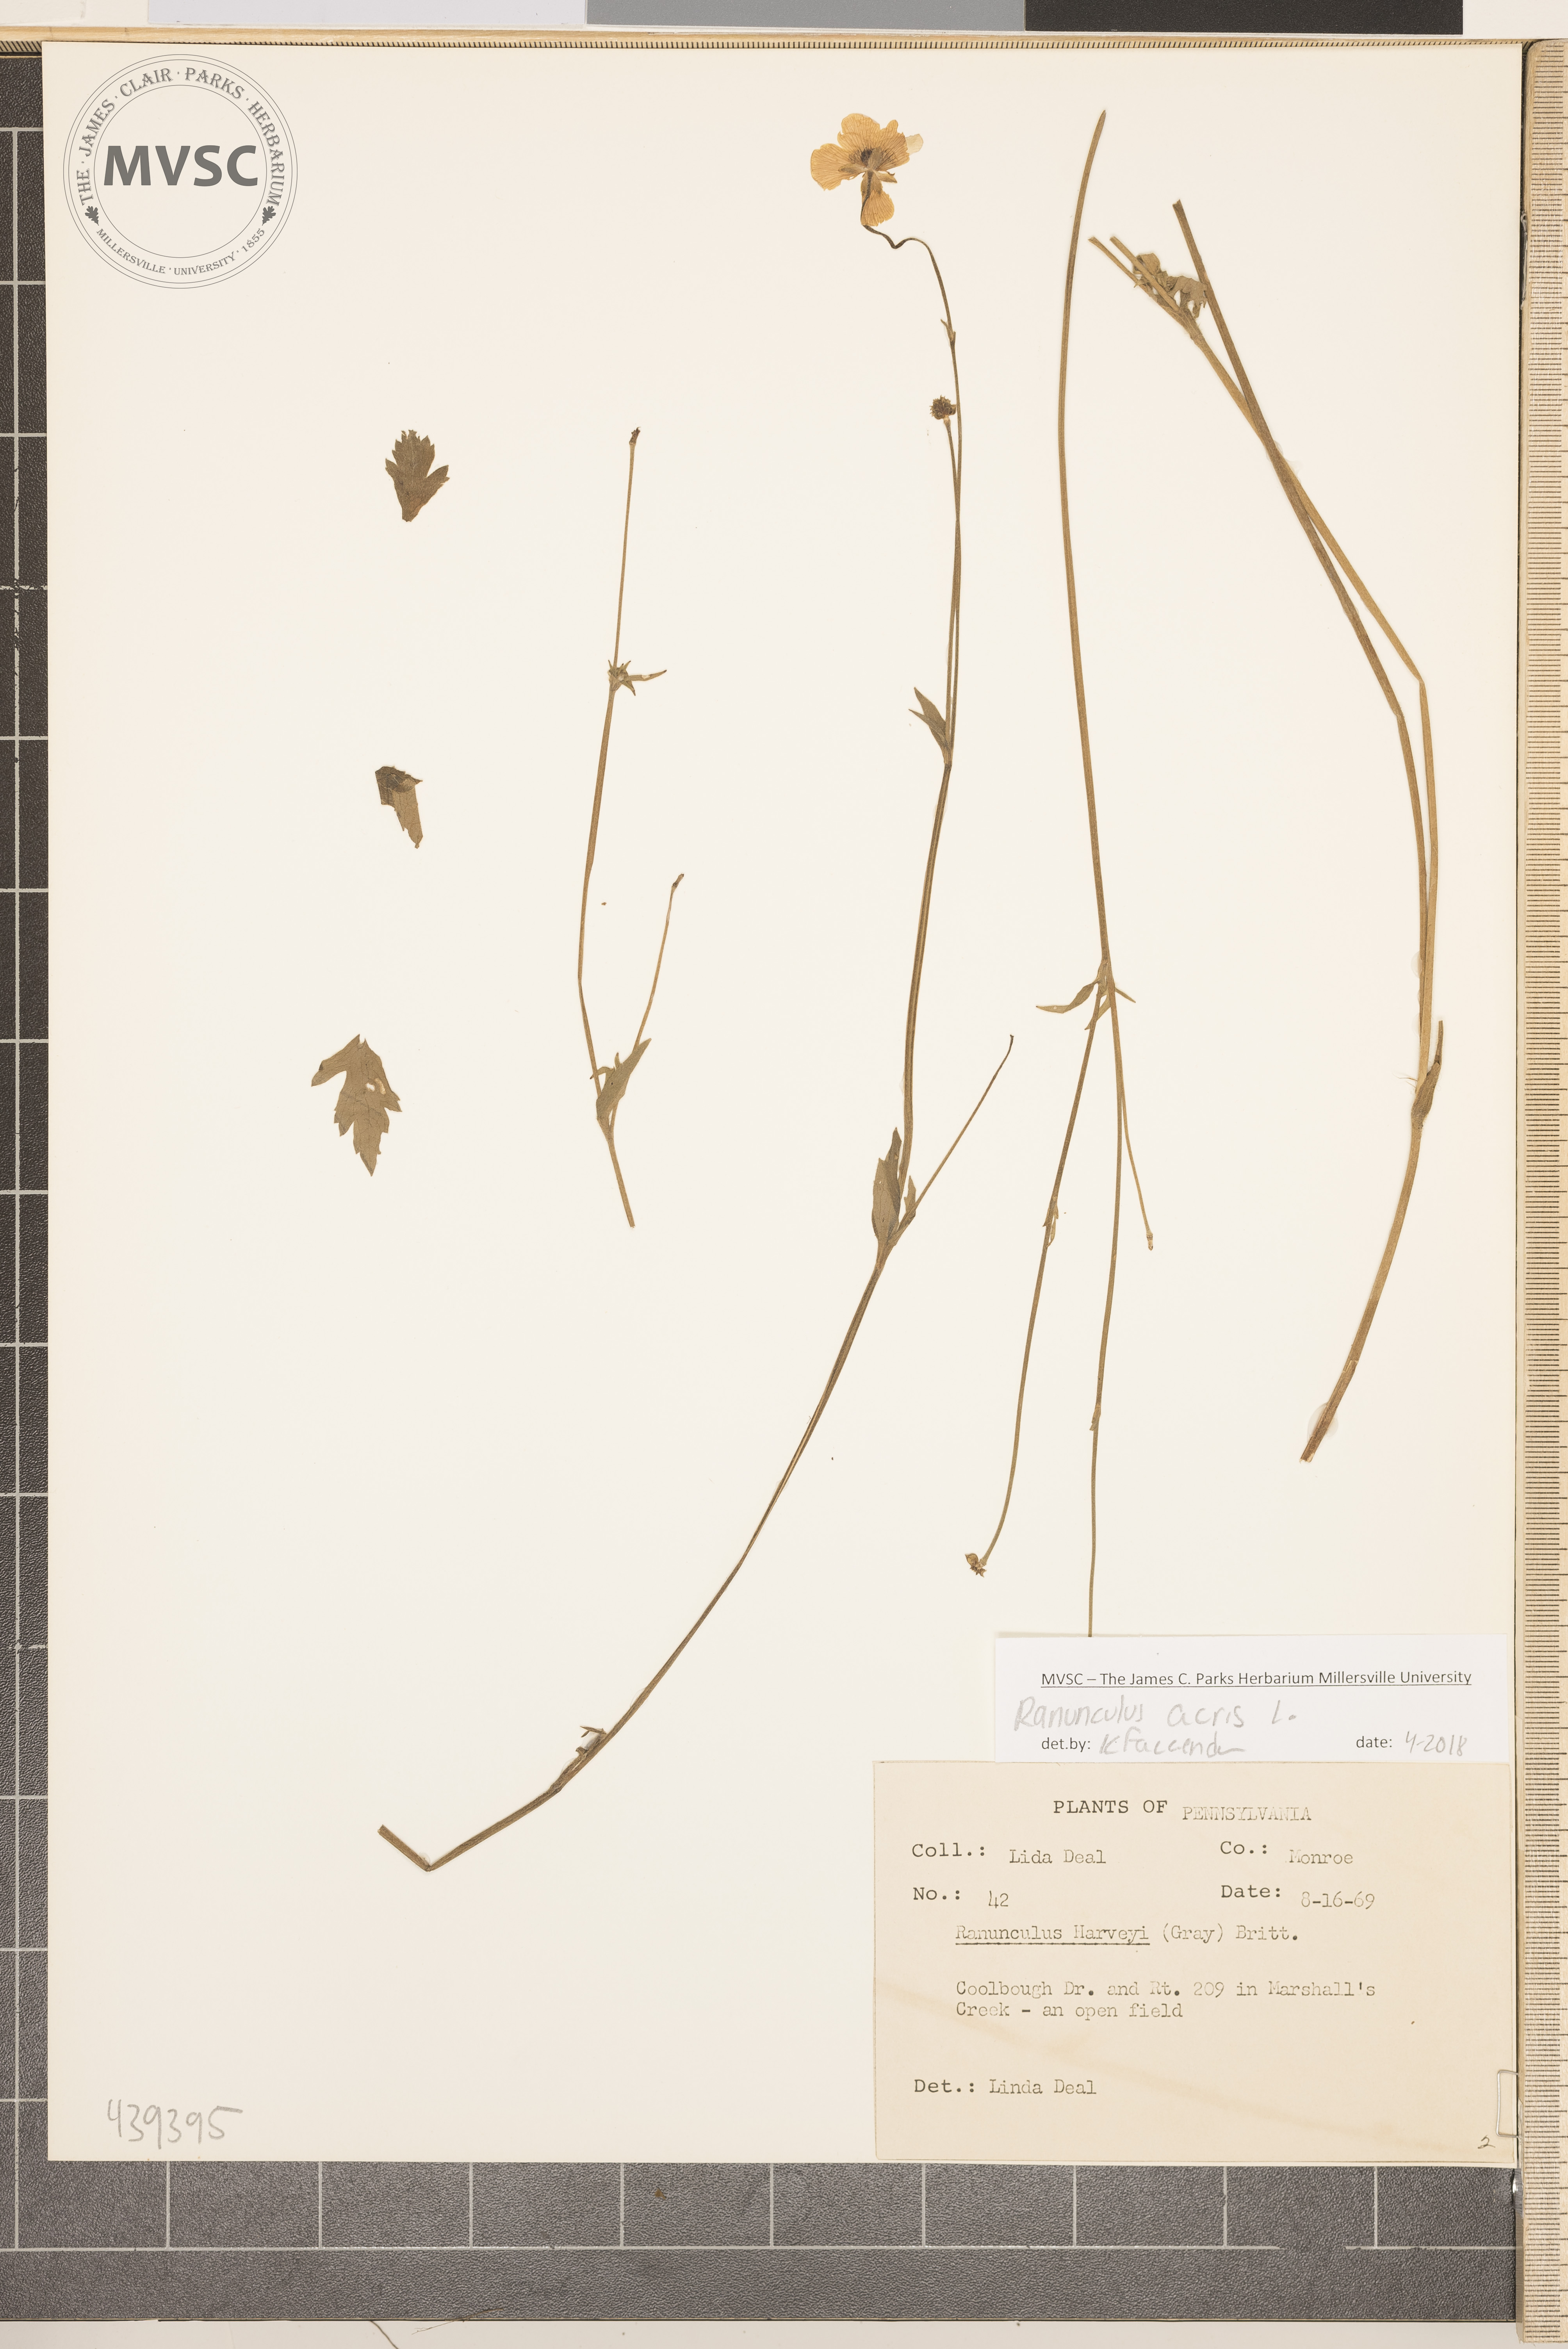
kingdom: Plantae
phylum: Tracheophyta
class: Magnoliopsida
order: Ranunculales
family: Ranunculaceae
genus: Ranunculus
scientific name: Ranunculus acris
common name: Meadow buttercup
